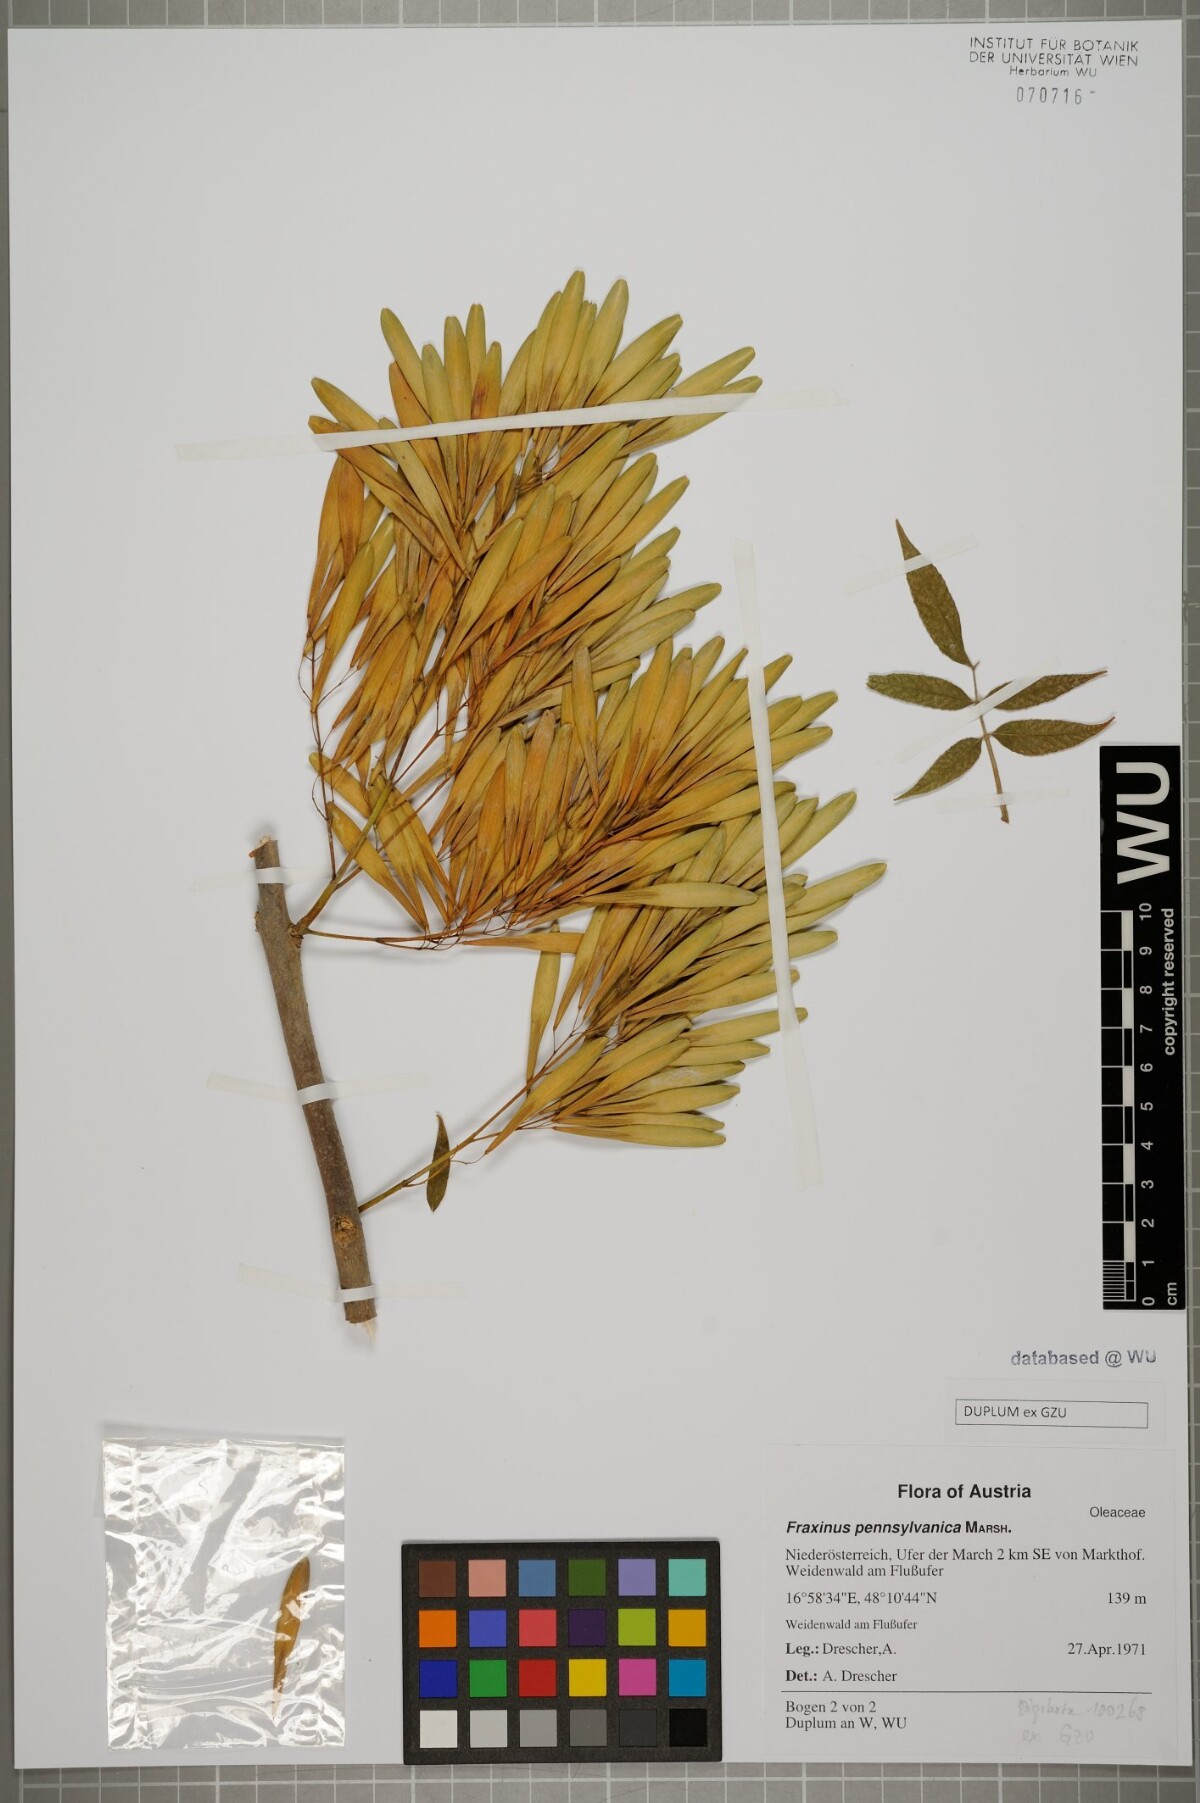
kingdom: Plantae
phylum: Tracheophyta
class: Magnoliopsida
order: Lamiales
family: Oleaceae
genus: Fraxinus
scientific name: Fraxinus pennsylvanica
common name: Green ash
